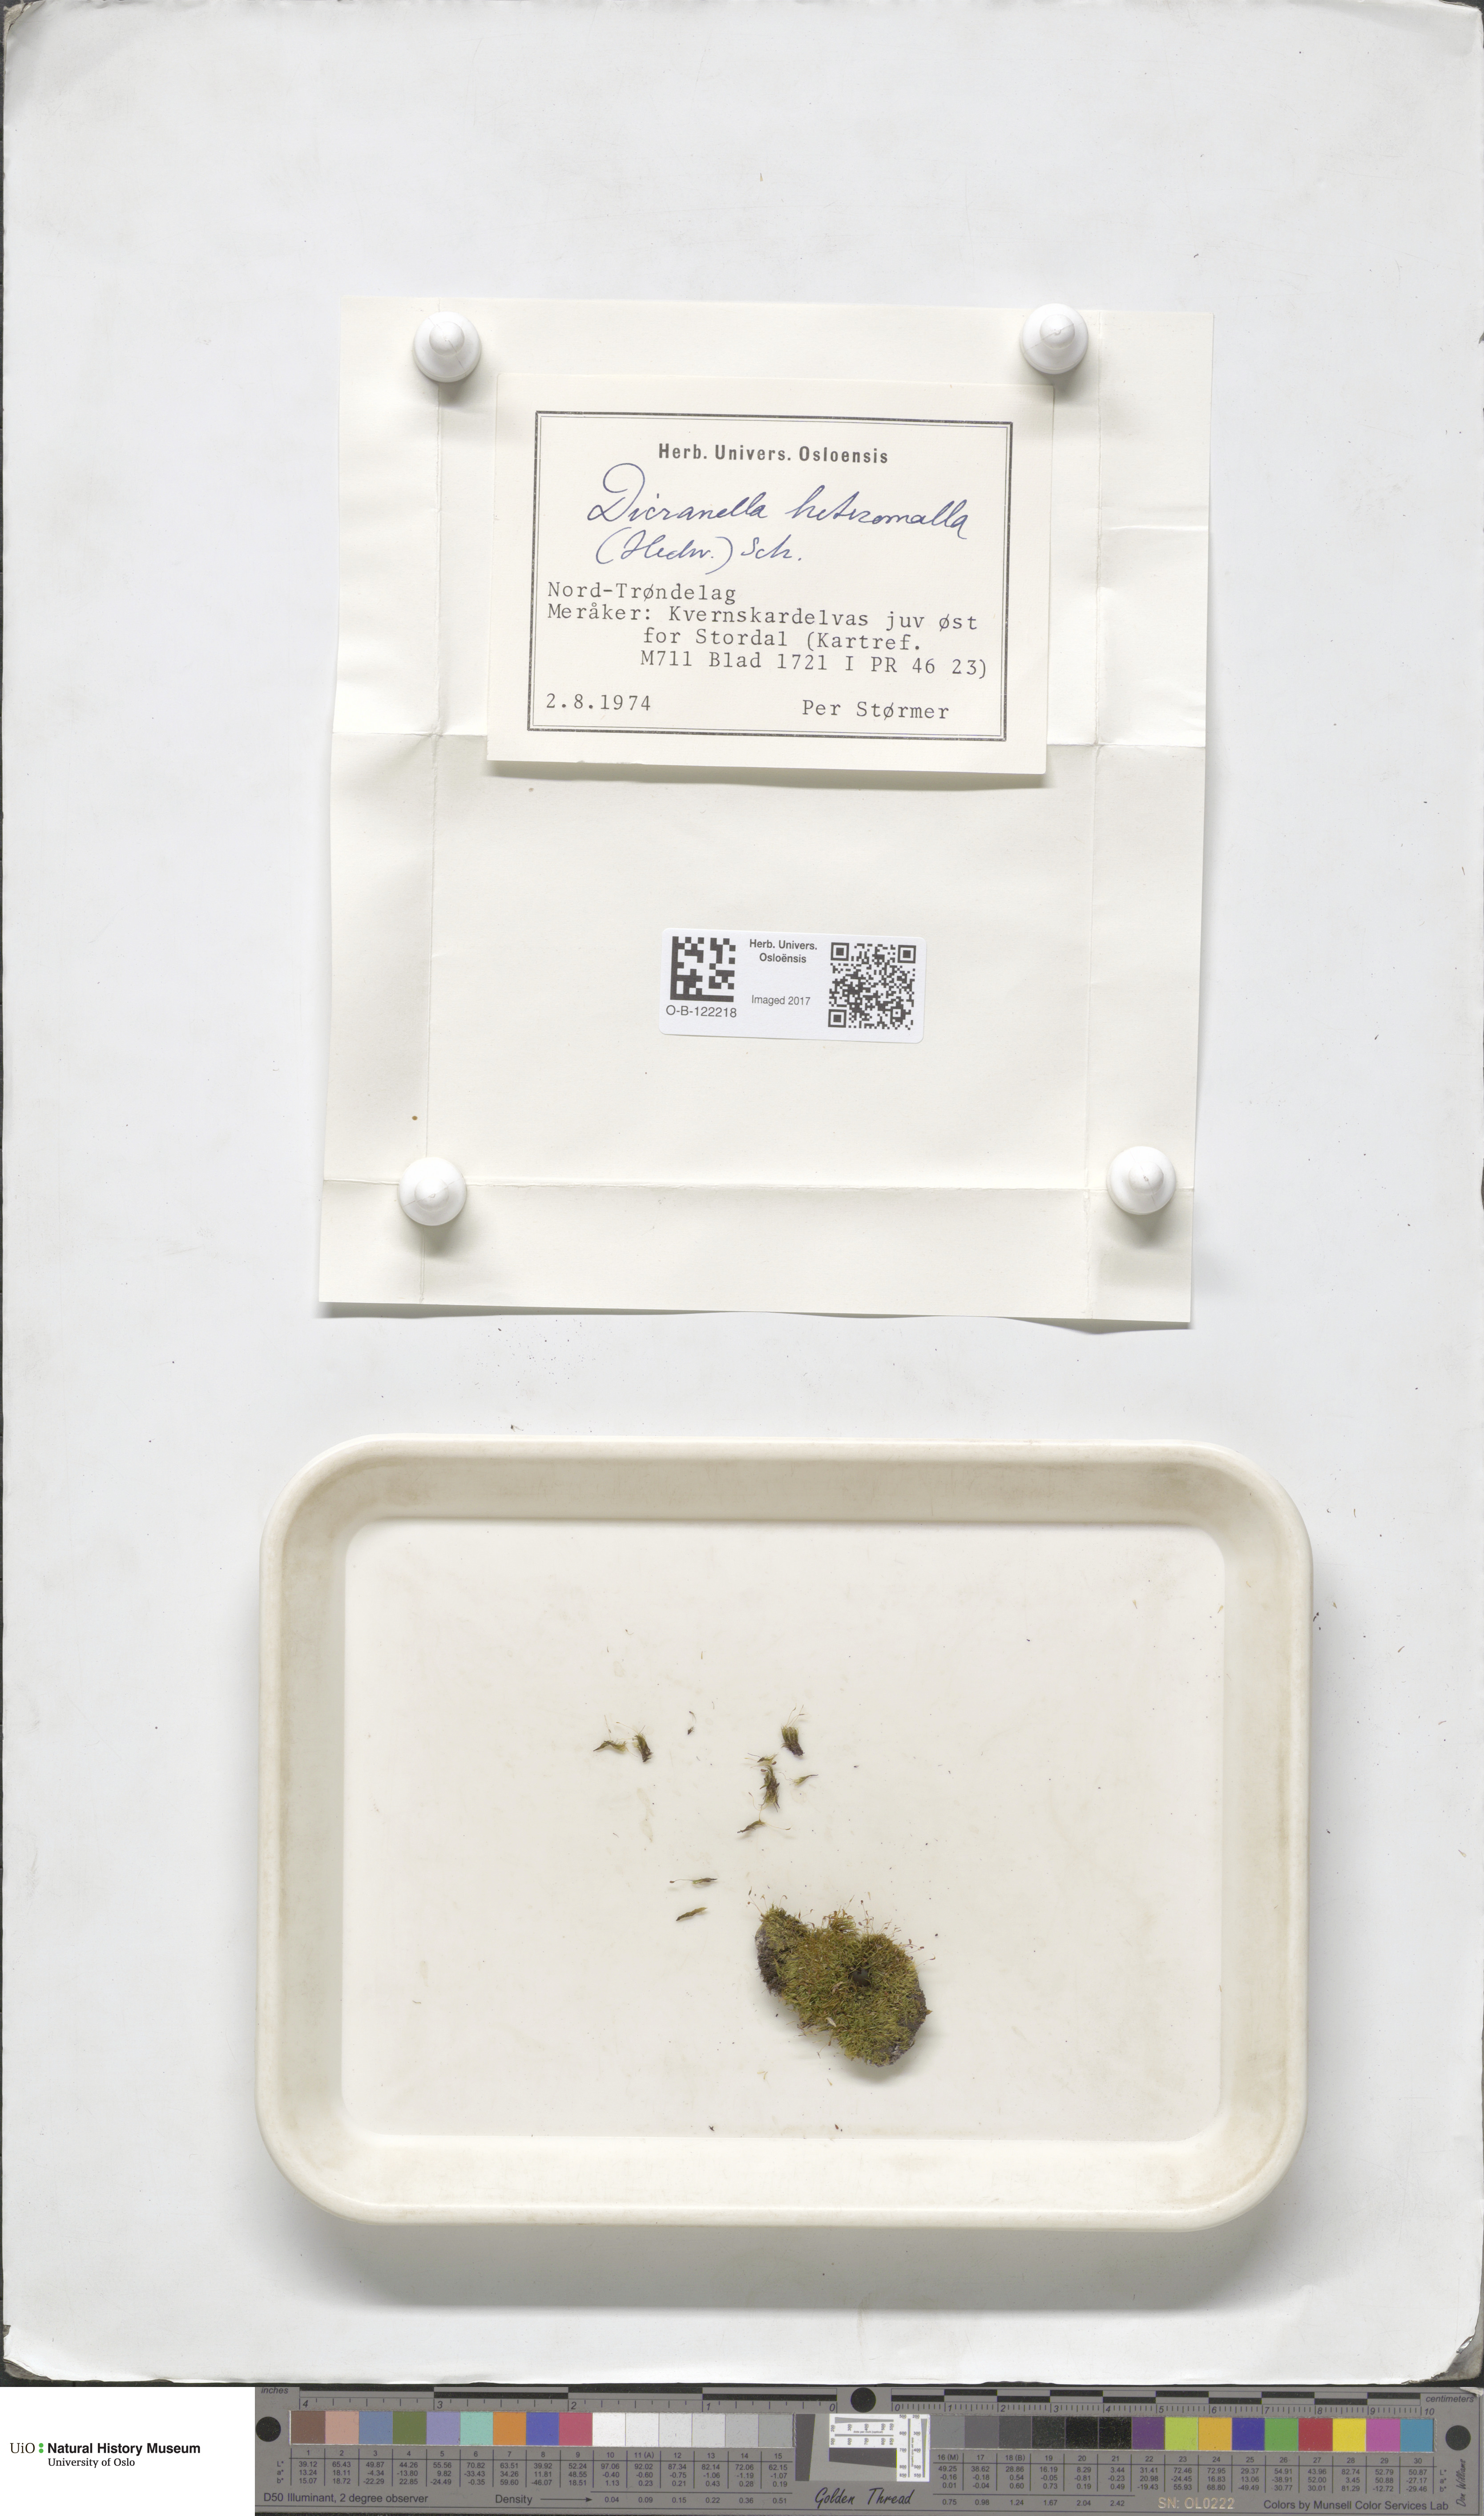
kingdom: Plantae
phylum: Bryophyta
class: Bryopsida
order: Dicranales
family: Dicranellaceae
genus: Dicranella
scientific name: Dicranella heteromalla
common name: Silky forklet moss
